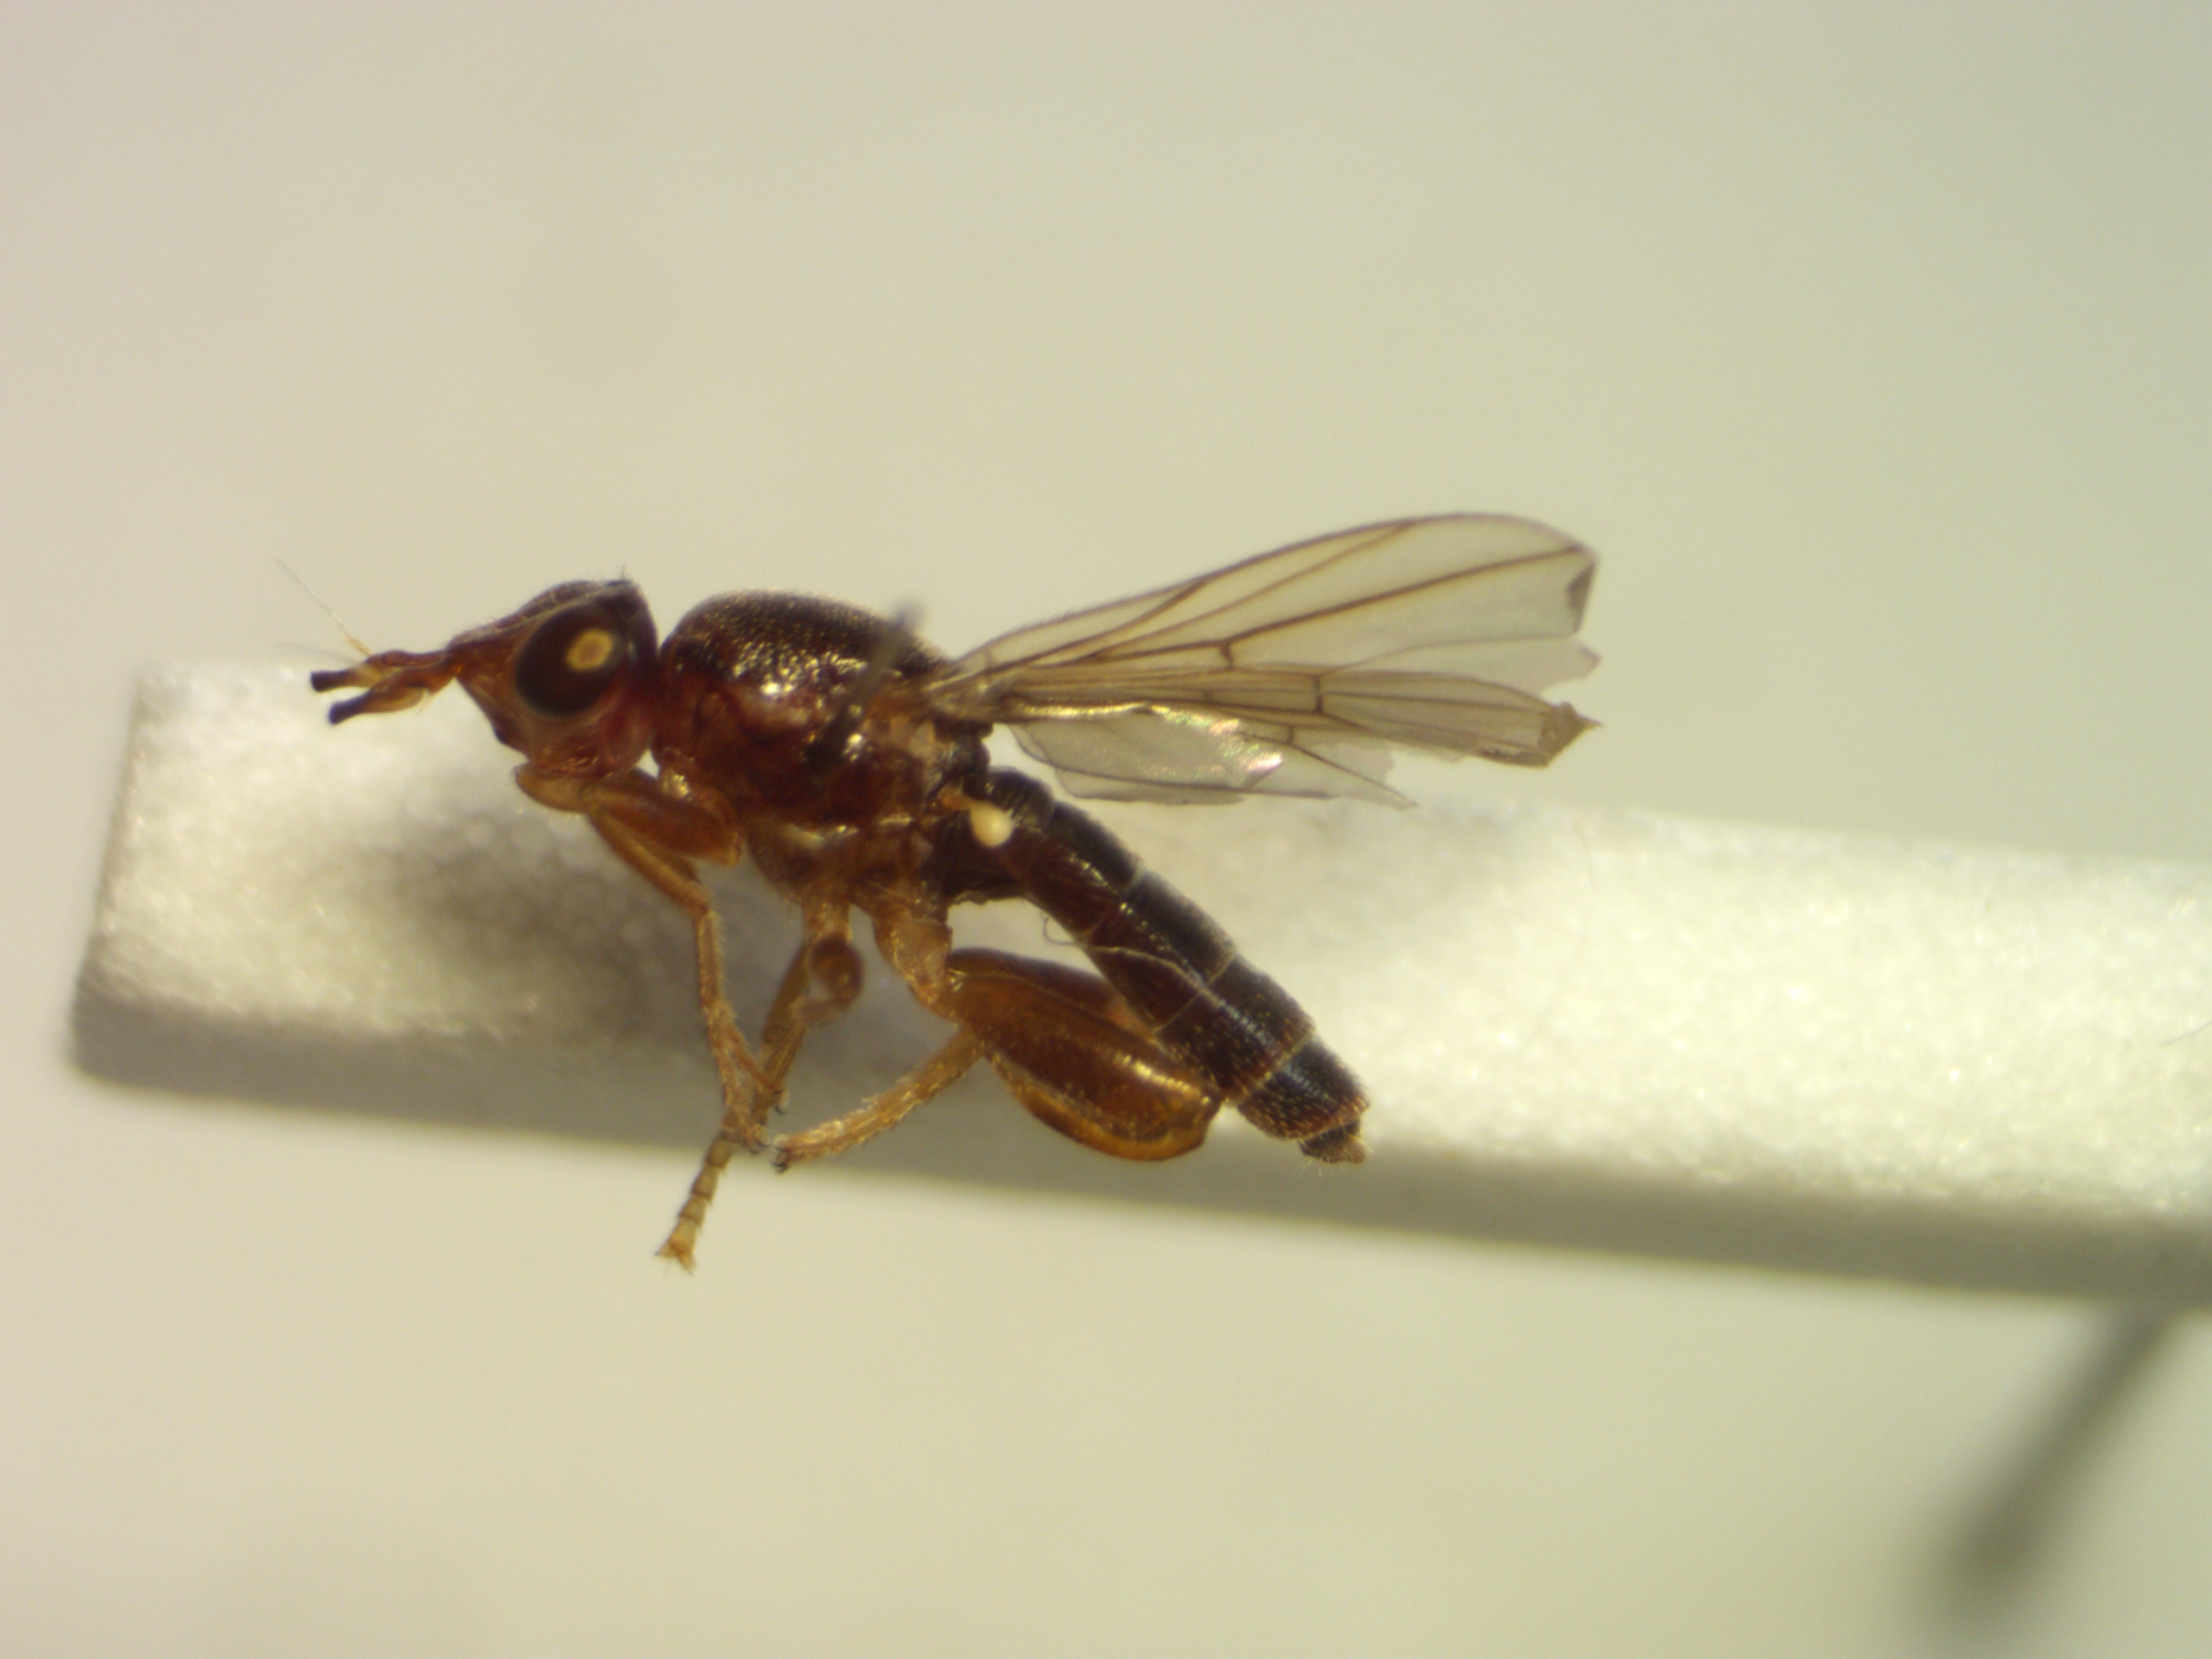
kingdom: Animalia
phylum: Arthropoda
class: Insecta
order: Diptera
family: Chloropidae
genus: Platycephala
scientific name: Platycephala umbraculata
